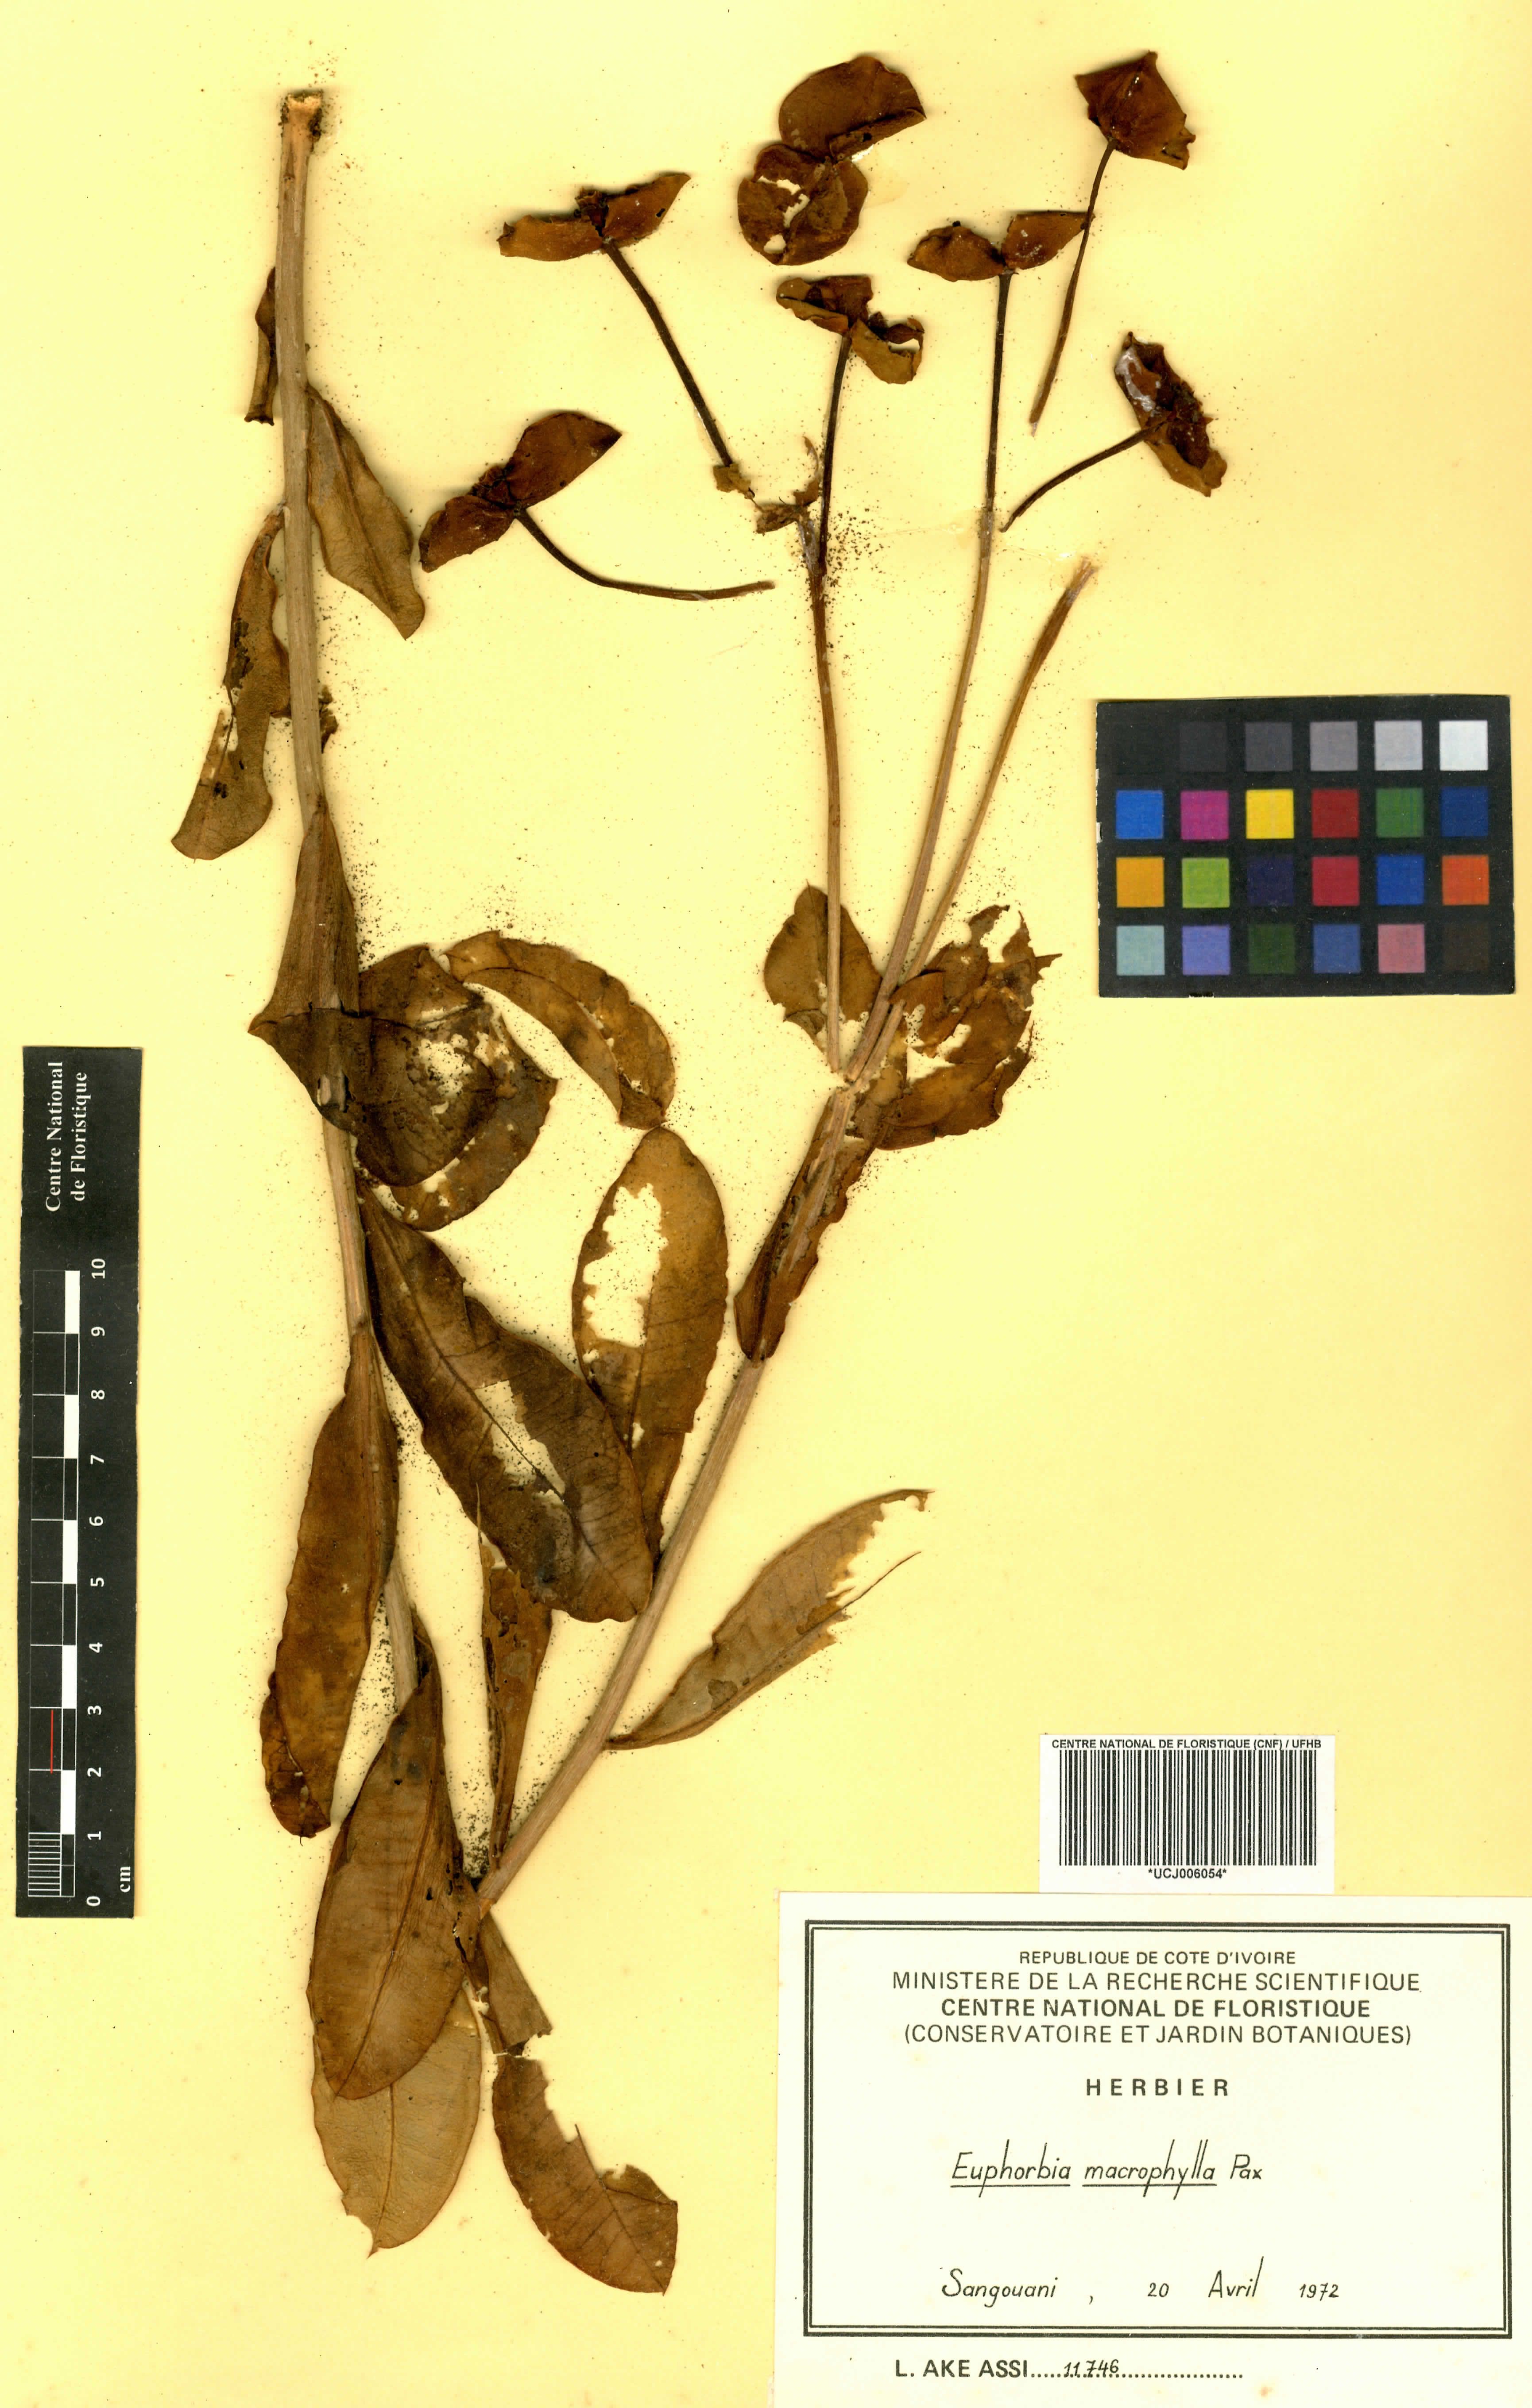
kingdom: Plantae
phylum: Tracheophyta
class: Magnoliopsida
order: Malpighiales
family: Euphorbiaceae
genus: Euphorbia
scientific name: Euphorbia macrophylla
